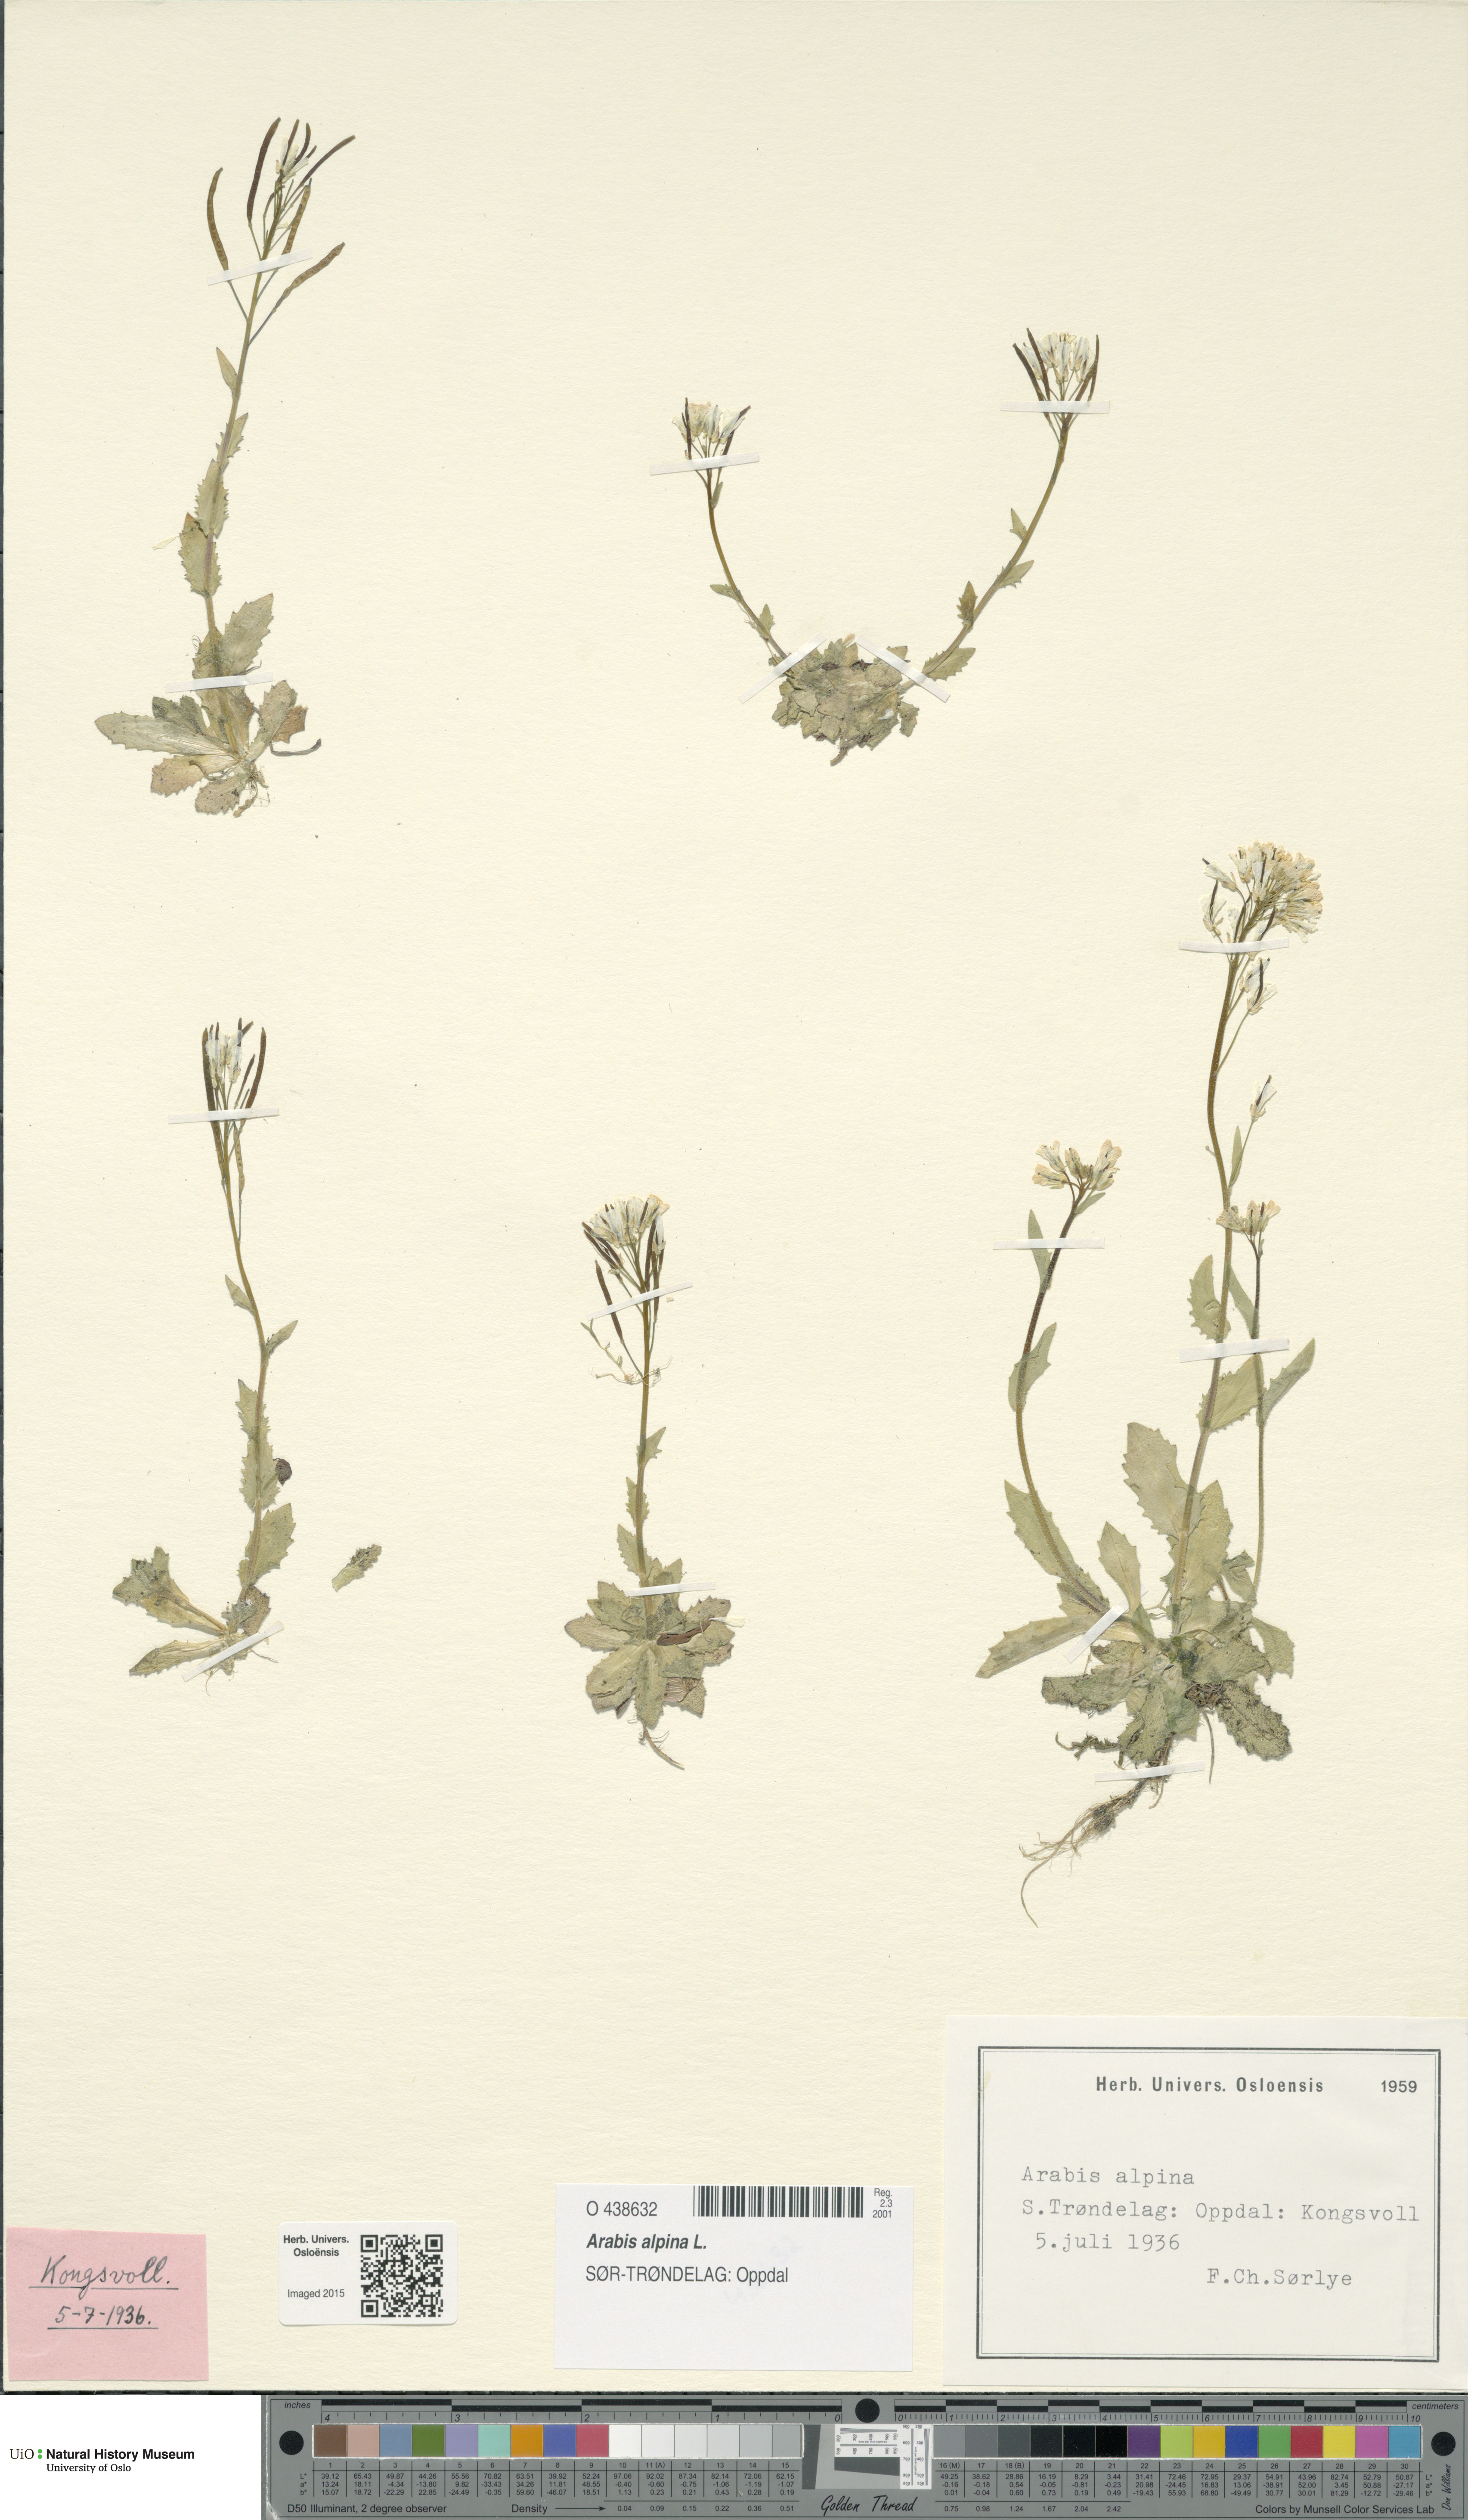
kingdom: Plantae
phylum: Tracheophyta
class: Magnoliopsida
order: Brassicales
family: Brassicaceae
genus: Arabis
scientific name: Arabis alpina
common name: Alpine rock-cress
